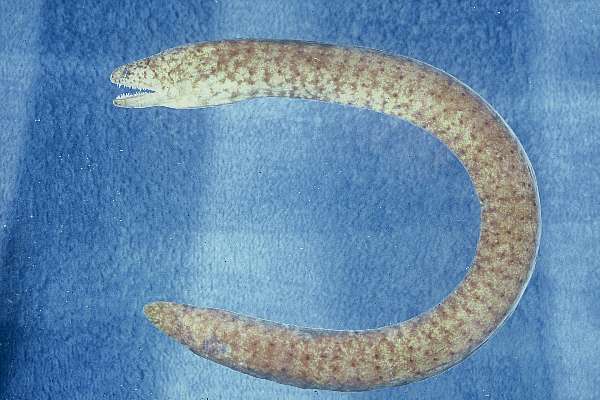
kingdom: Animalia
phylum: Chordata
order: Anguilliformes
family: Muraenidae
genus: Uropterygius
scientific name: Uropterygius fasciolatus
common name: Gosline's snake moray
